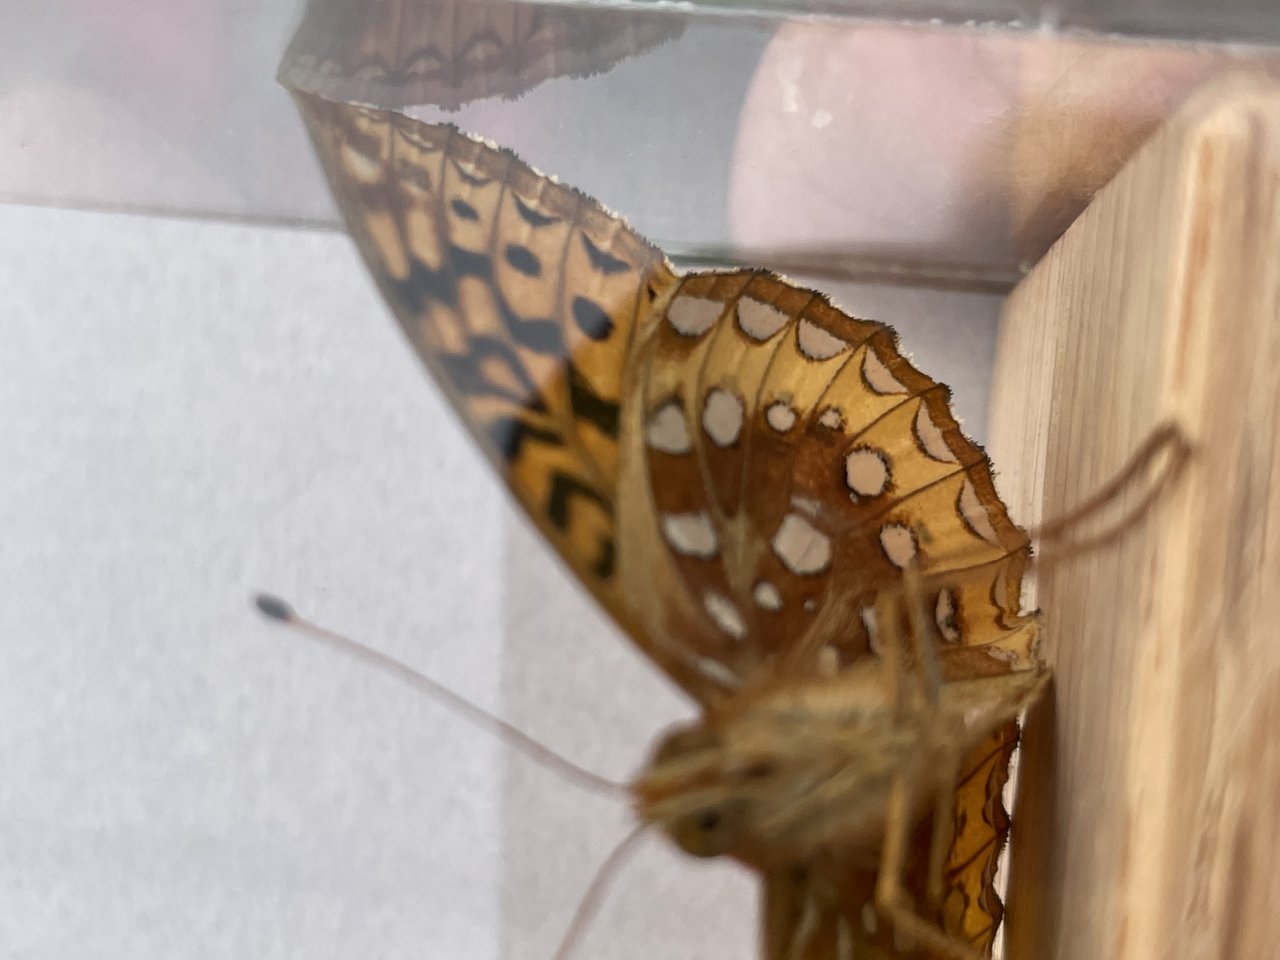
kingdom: Animalia
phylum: Arthropoda
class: Insecta
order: Lepidoptera
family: Nymphalidae
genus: Speyeria
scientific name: Speyeria cybele
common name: Great Spangled Fritillary
